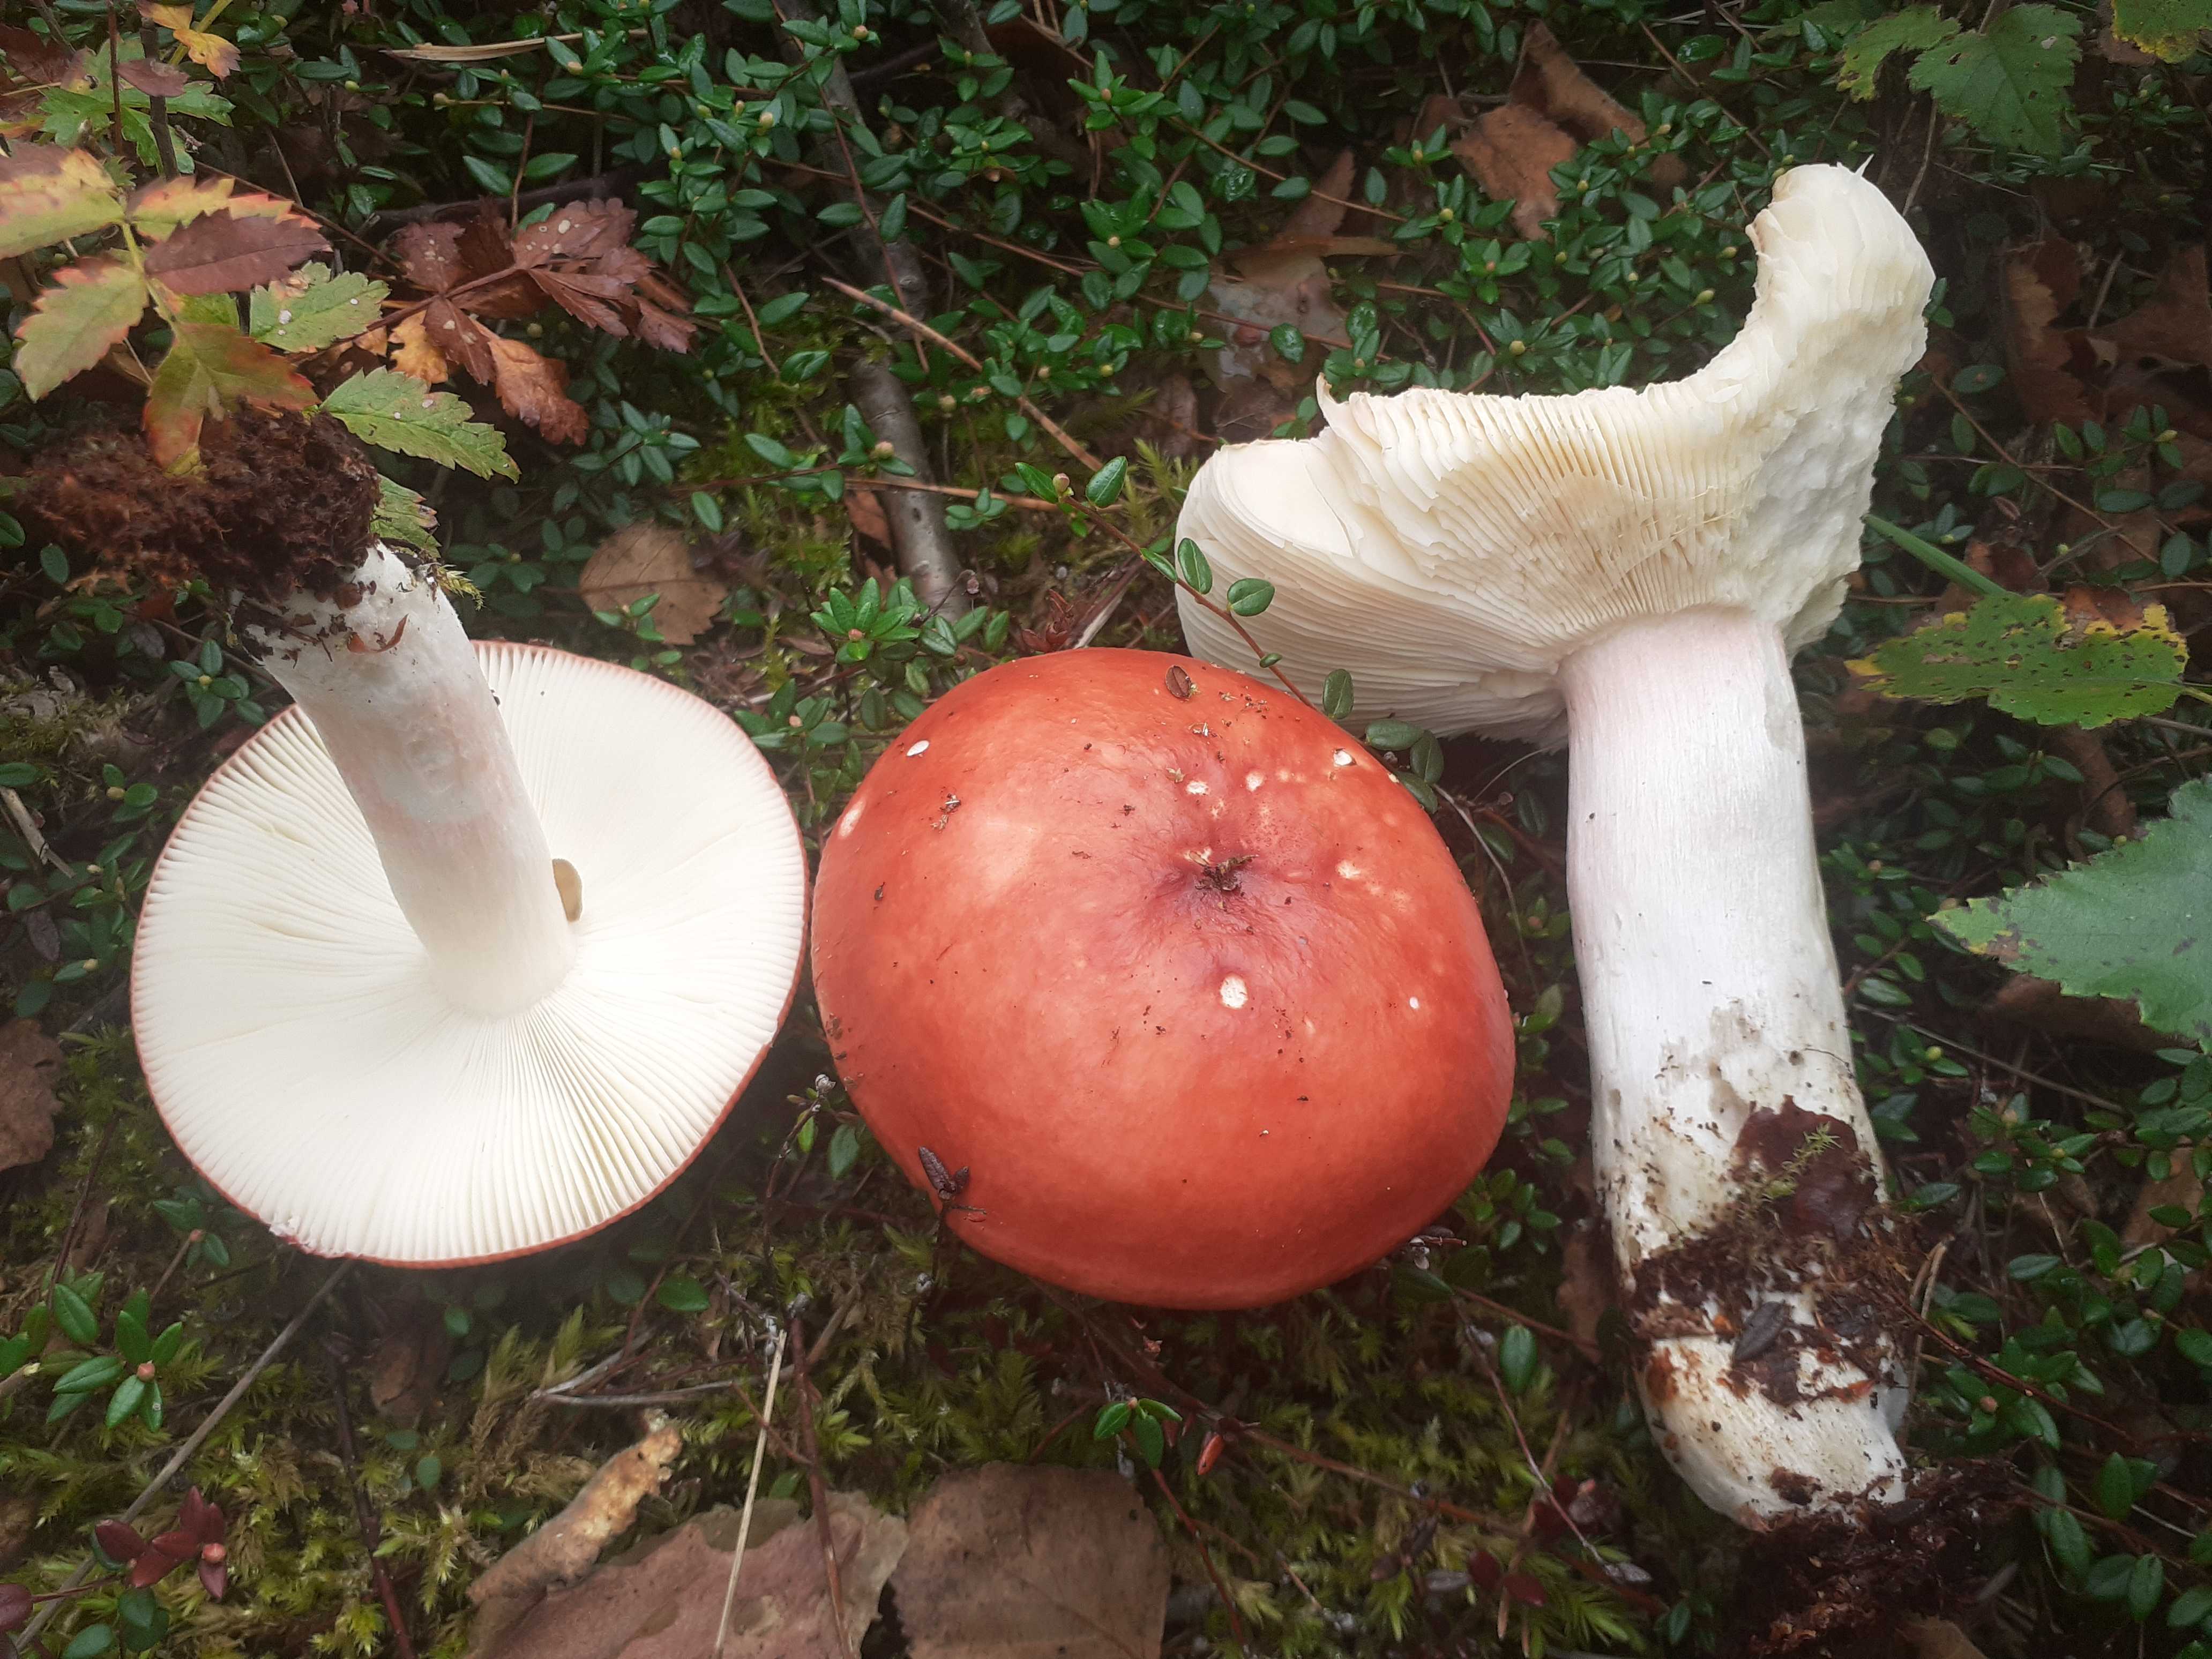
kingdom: Fungi
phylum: Basidiomycota
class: Agaricomycetes
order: Russulales
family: Russulaceae
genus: Russula
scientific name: Russula paludosa
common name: prægtig skørhat
